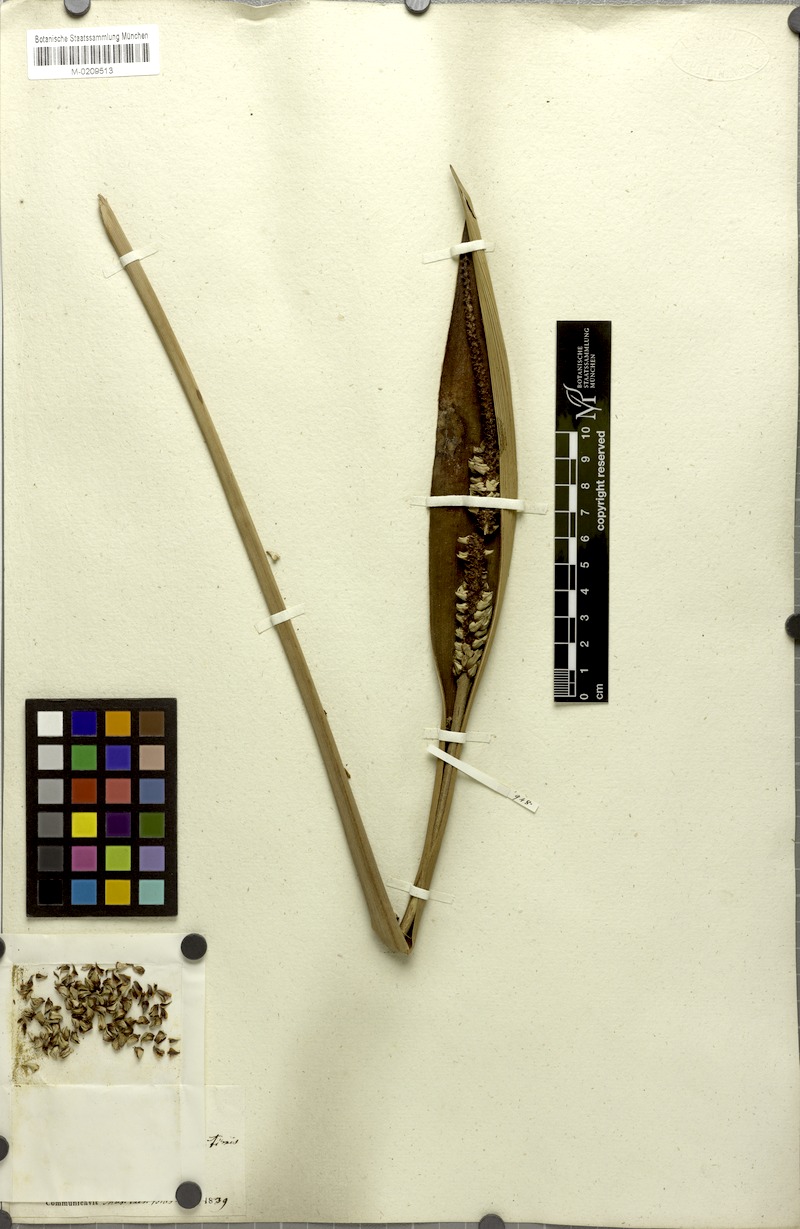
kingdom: Plantae
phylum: Tracheophyta
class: Liliopsida
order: Arecales
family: Arecaceae
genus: Allagoptera
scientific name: Allagoptera arenaria
